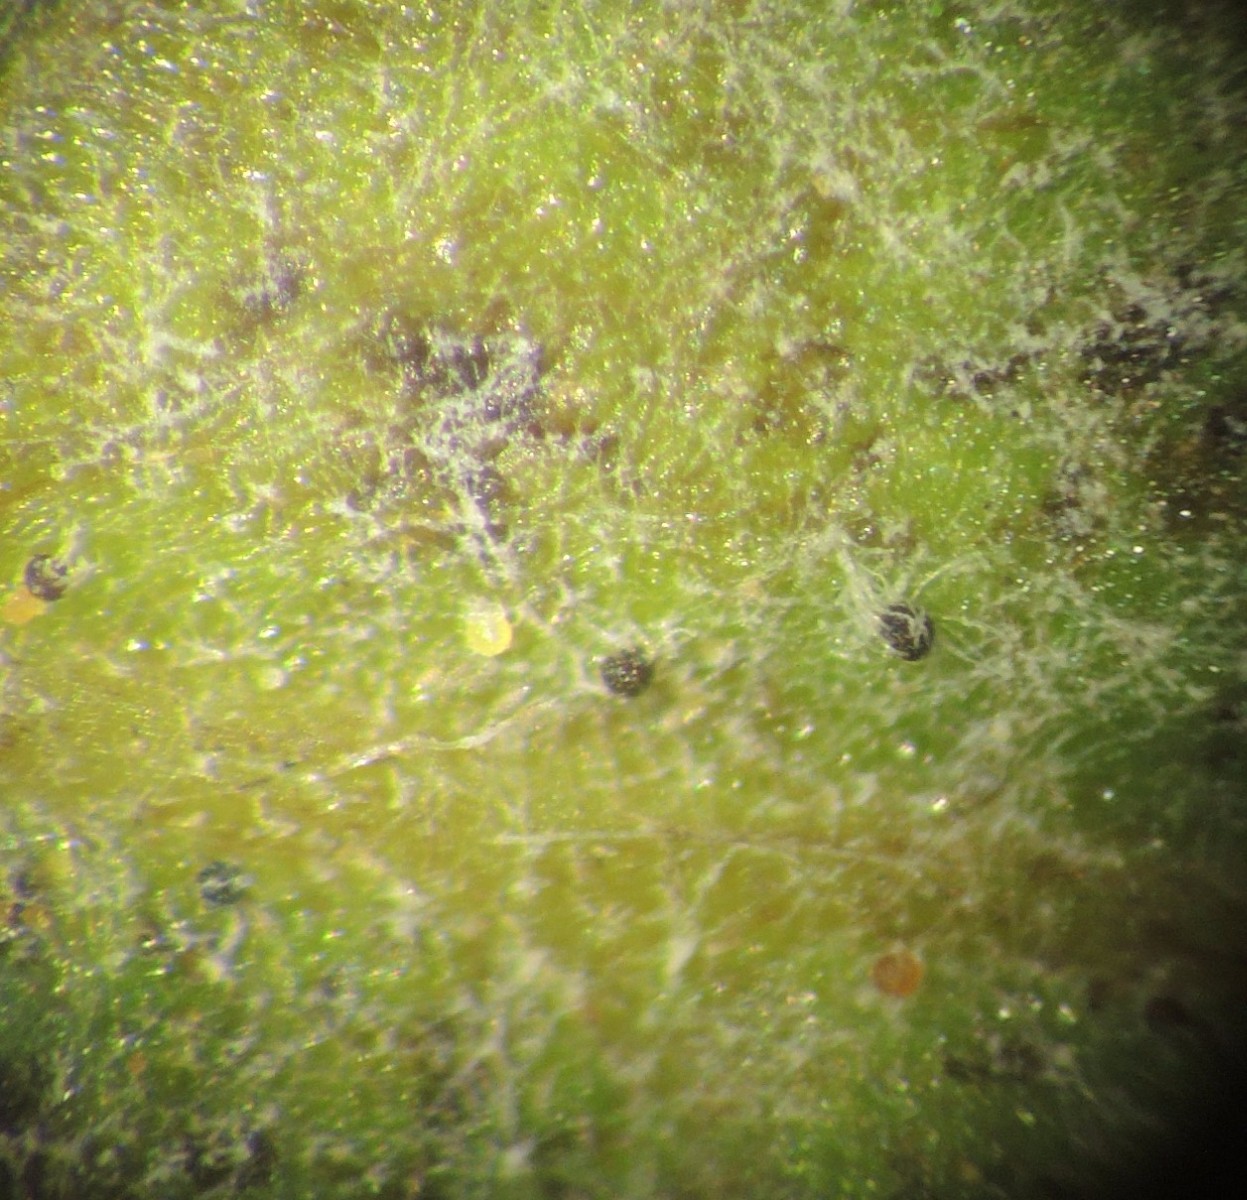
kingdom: Fungi
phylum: Ascomycota
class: Leotiomycetes
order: Helotiales
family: Erysiphaceae
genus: Erysiphe
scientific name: Erysiphe arcuata
